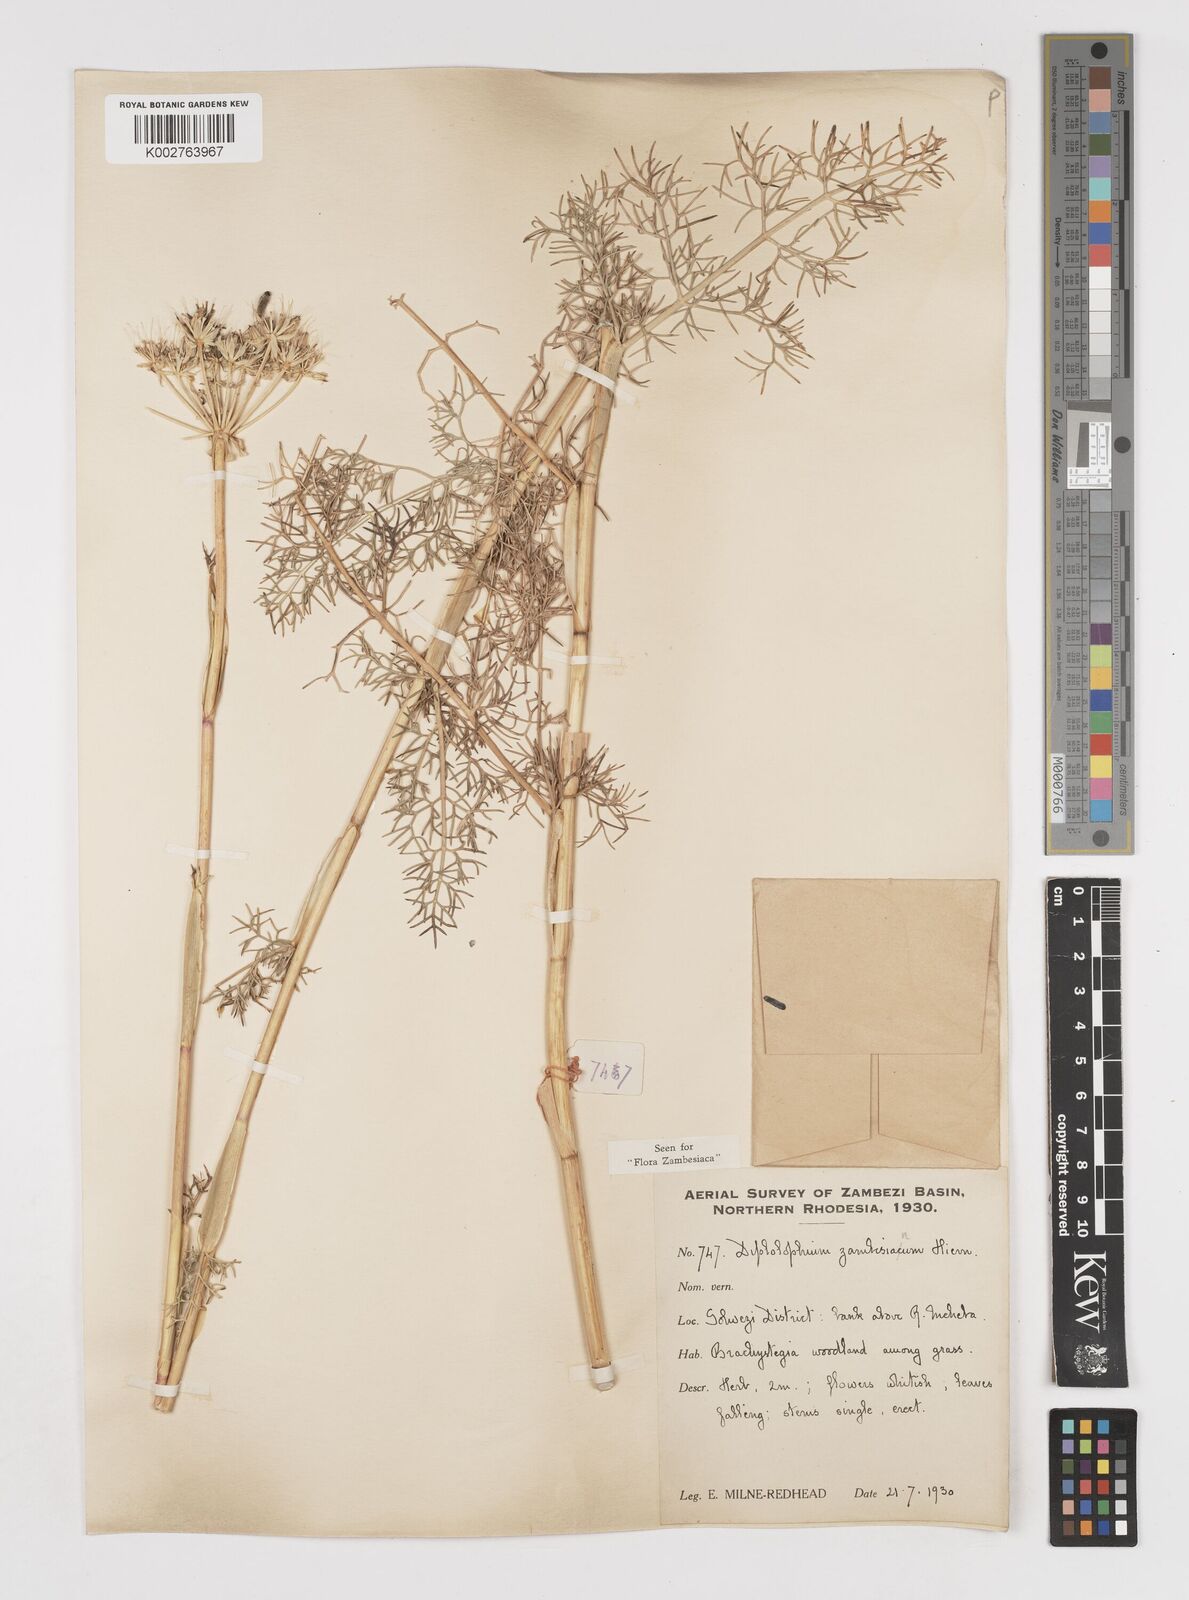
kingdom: Plantae
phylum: Tracheophyta
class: Magnoliopsida
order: Apiales
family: Apiaceae
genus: Diplolophium
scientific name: Diplolophium zambesianum
